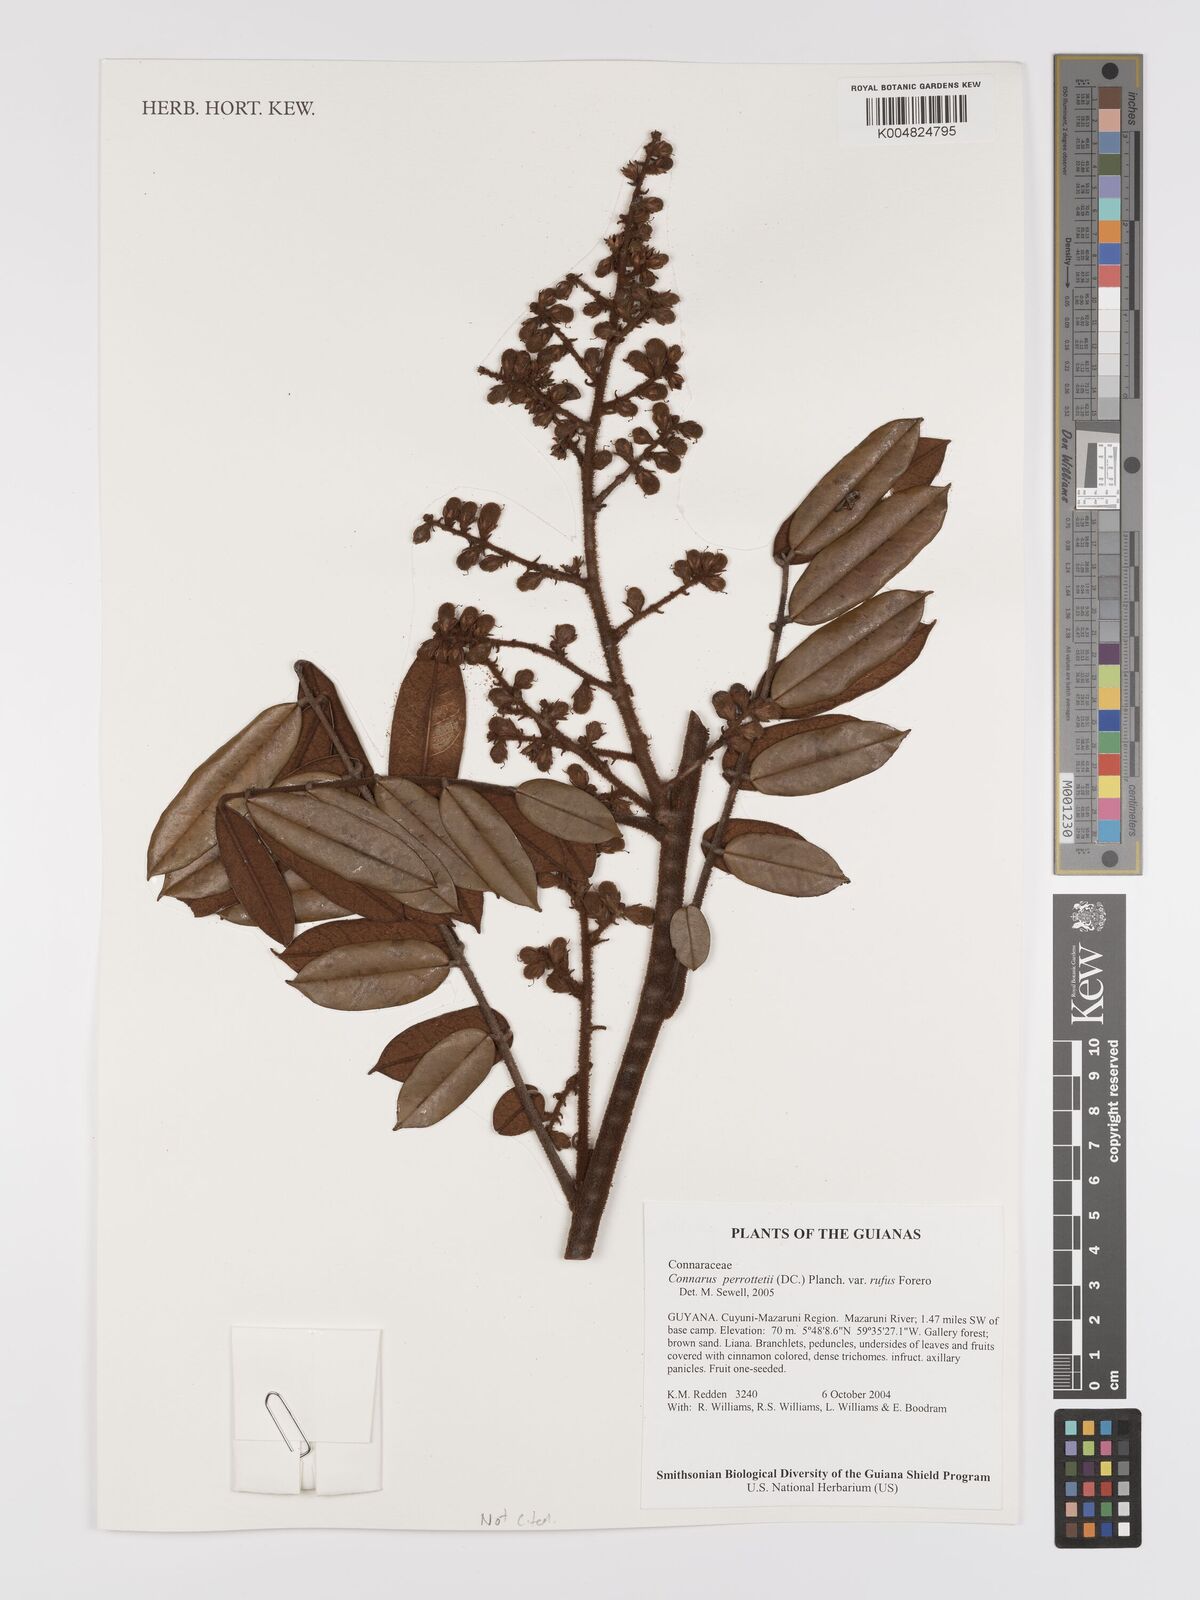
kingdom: Plantae
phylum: Tracheophyta
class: Magnoliopsida
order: Oxalidales
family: Connaraceae
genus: Connarus
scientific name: Connarus perrottetii
